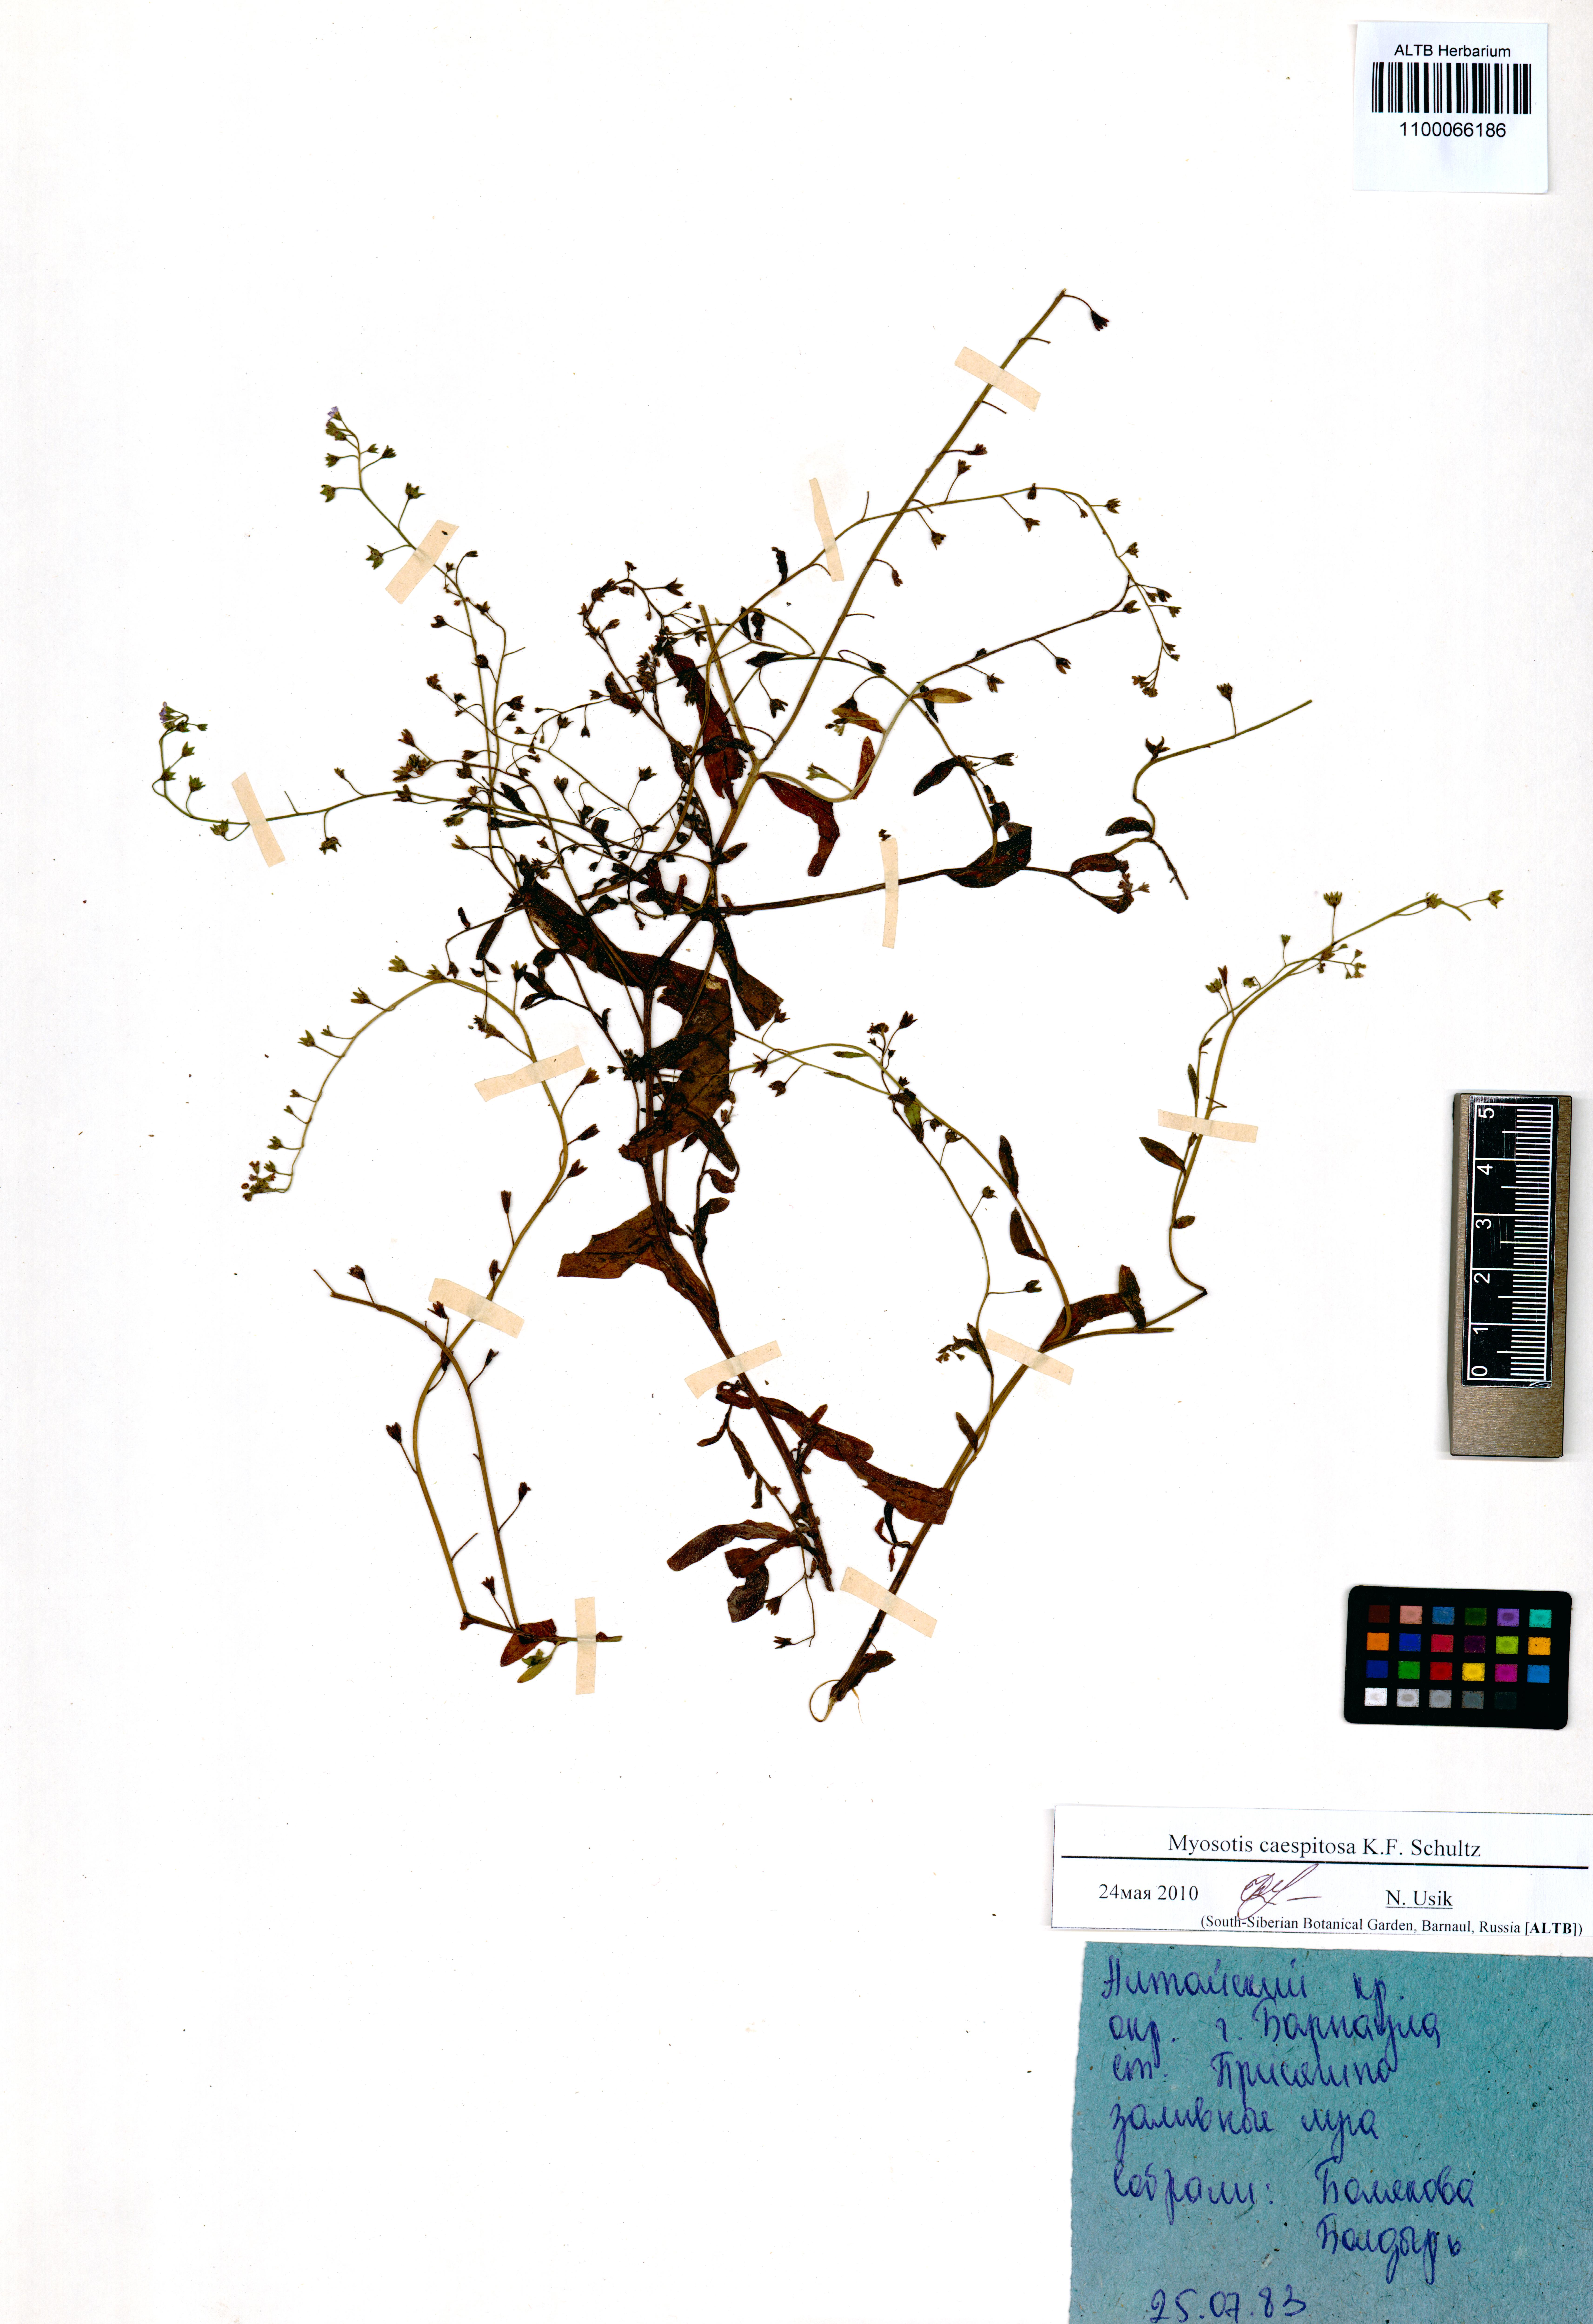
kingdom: Plantae
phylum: Tracheophyta
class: Magnoliopsida
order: Boraginales
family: Boraginaceae
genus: Myosotis
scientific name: Myosotis laxa
